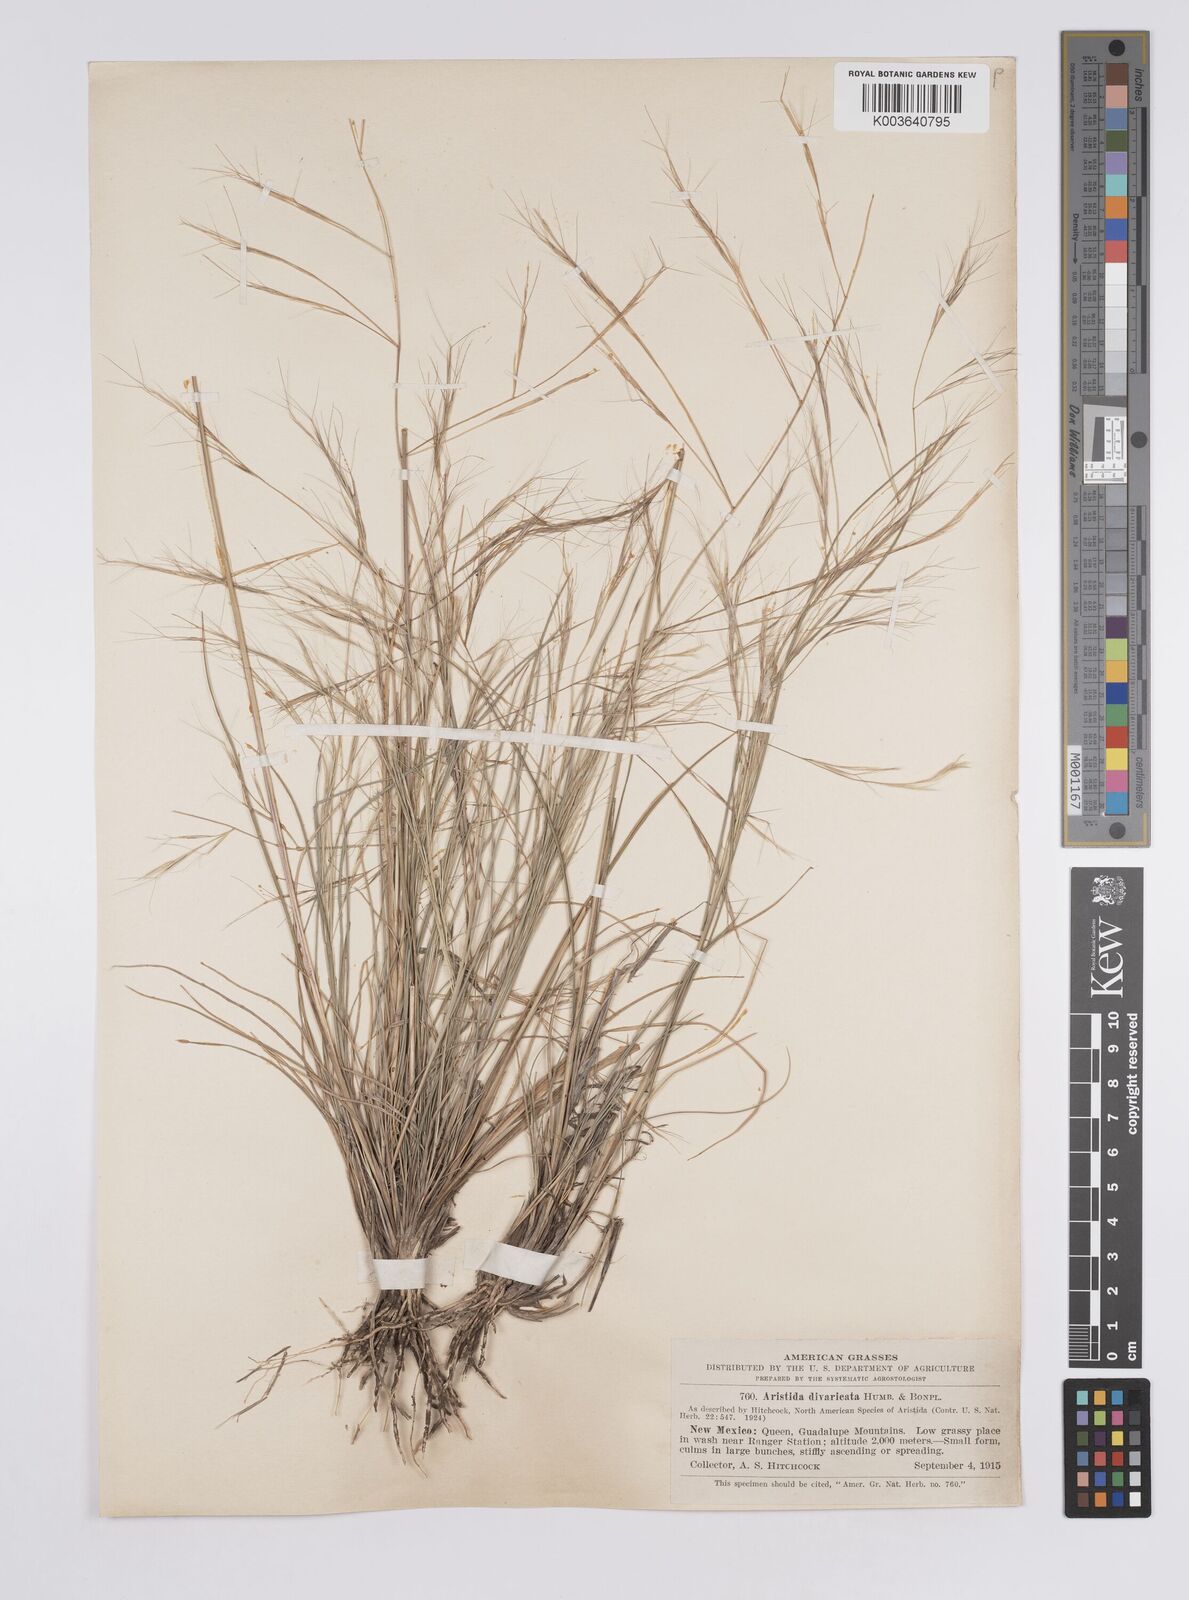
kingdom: Plantae
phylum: Tracheophyta
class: Liliopsida
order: Poales
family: Poaceae
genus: Aristida
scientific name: Aristida laxa
